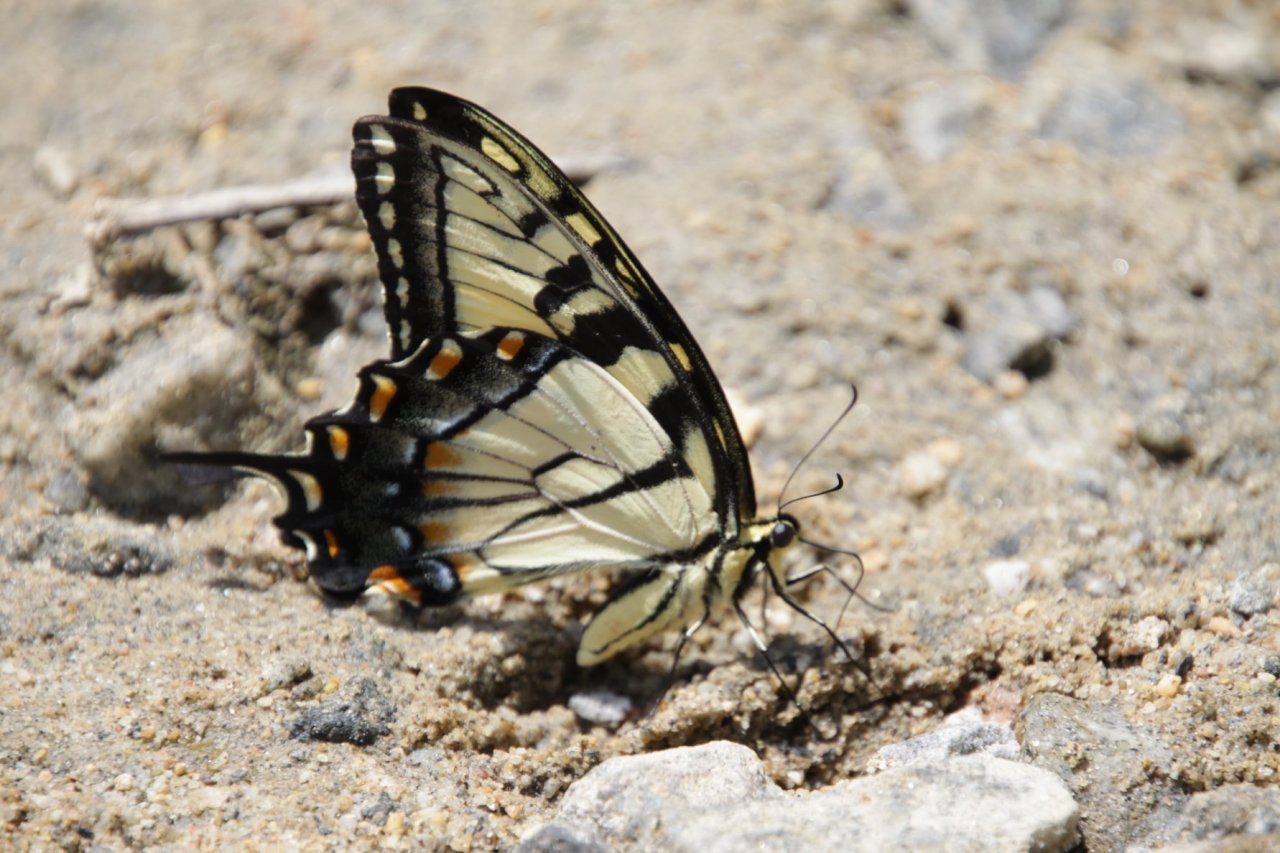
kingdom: Animalia
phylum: Arthropoda
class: Insecta
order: Lepidoptera
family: Papilionidae
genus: Pterourus
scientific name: Pterourus glaucus
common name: Eastern Tiger Swallowtail
